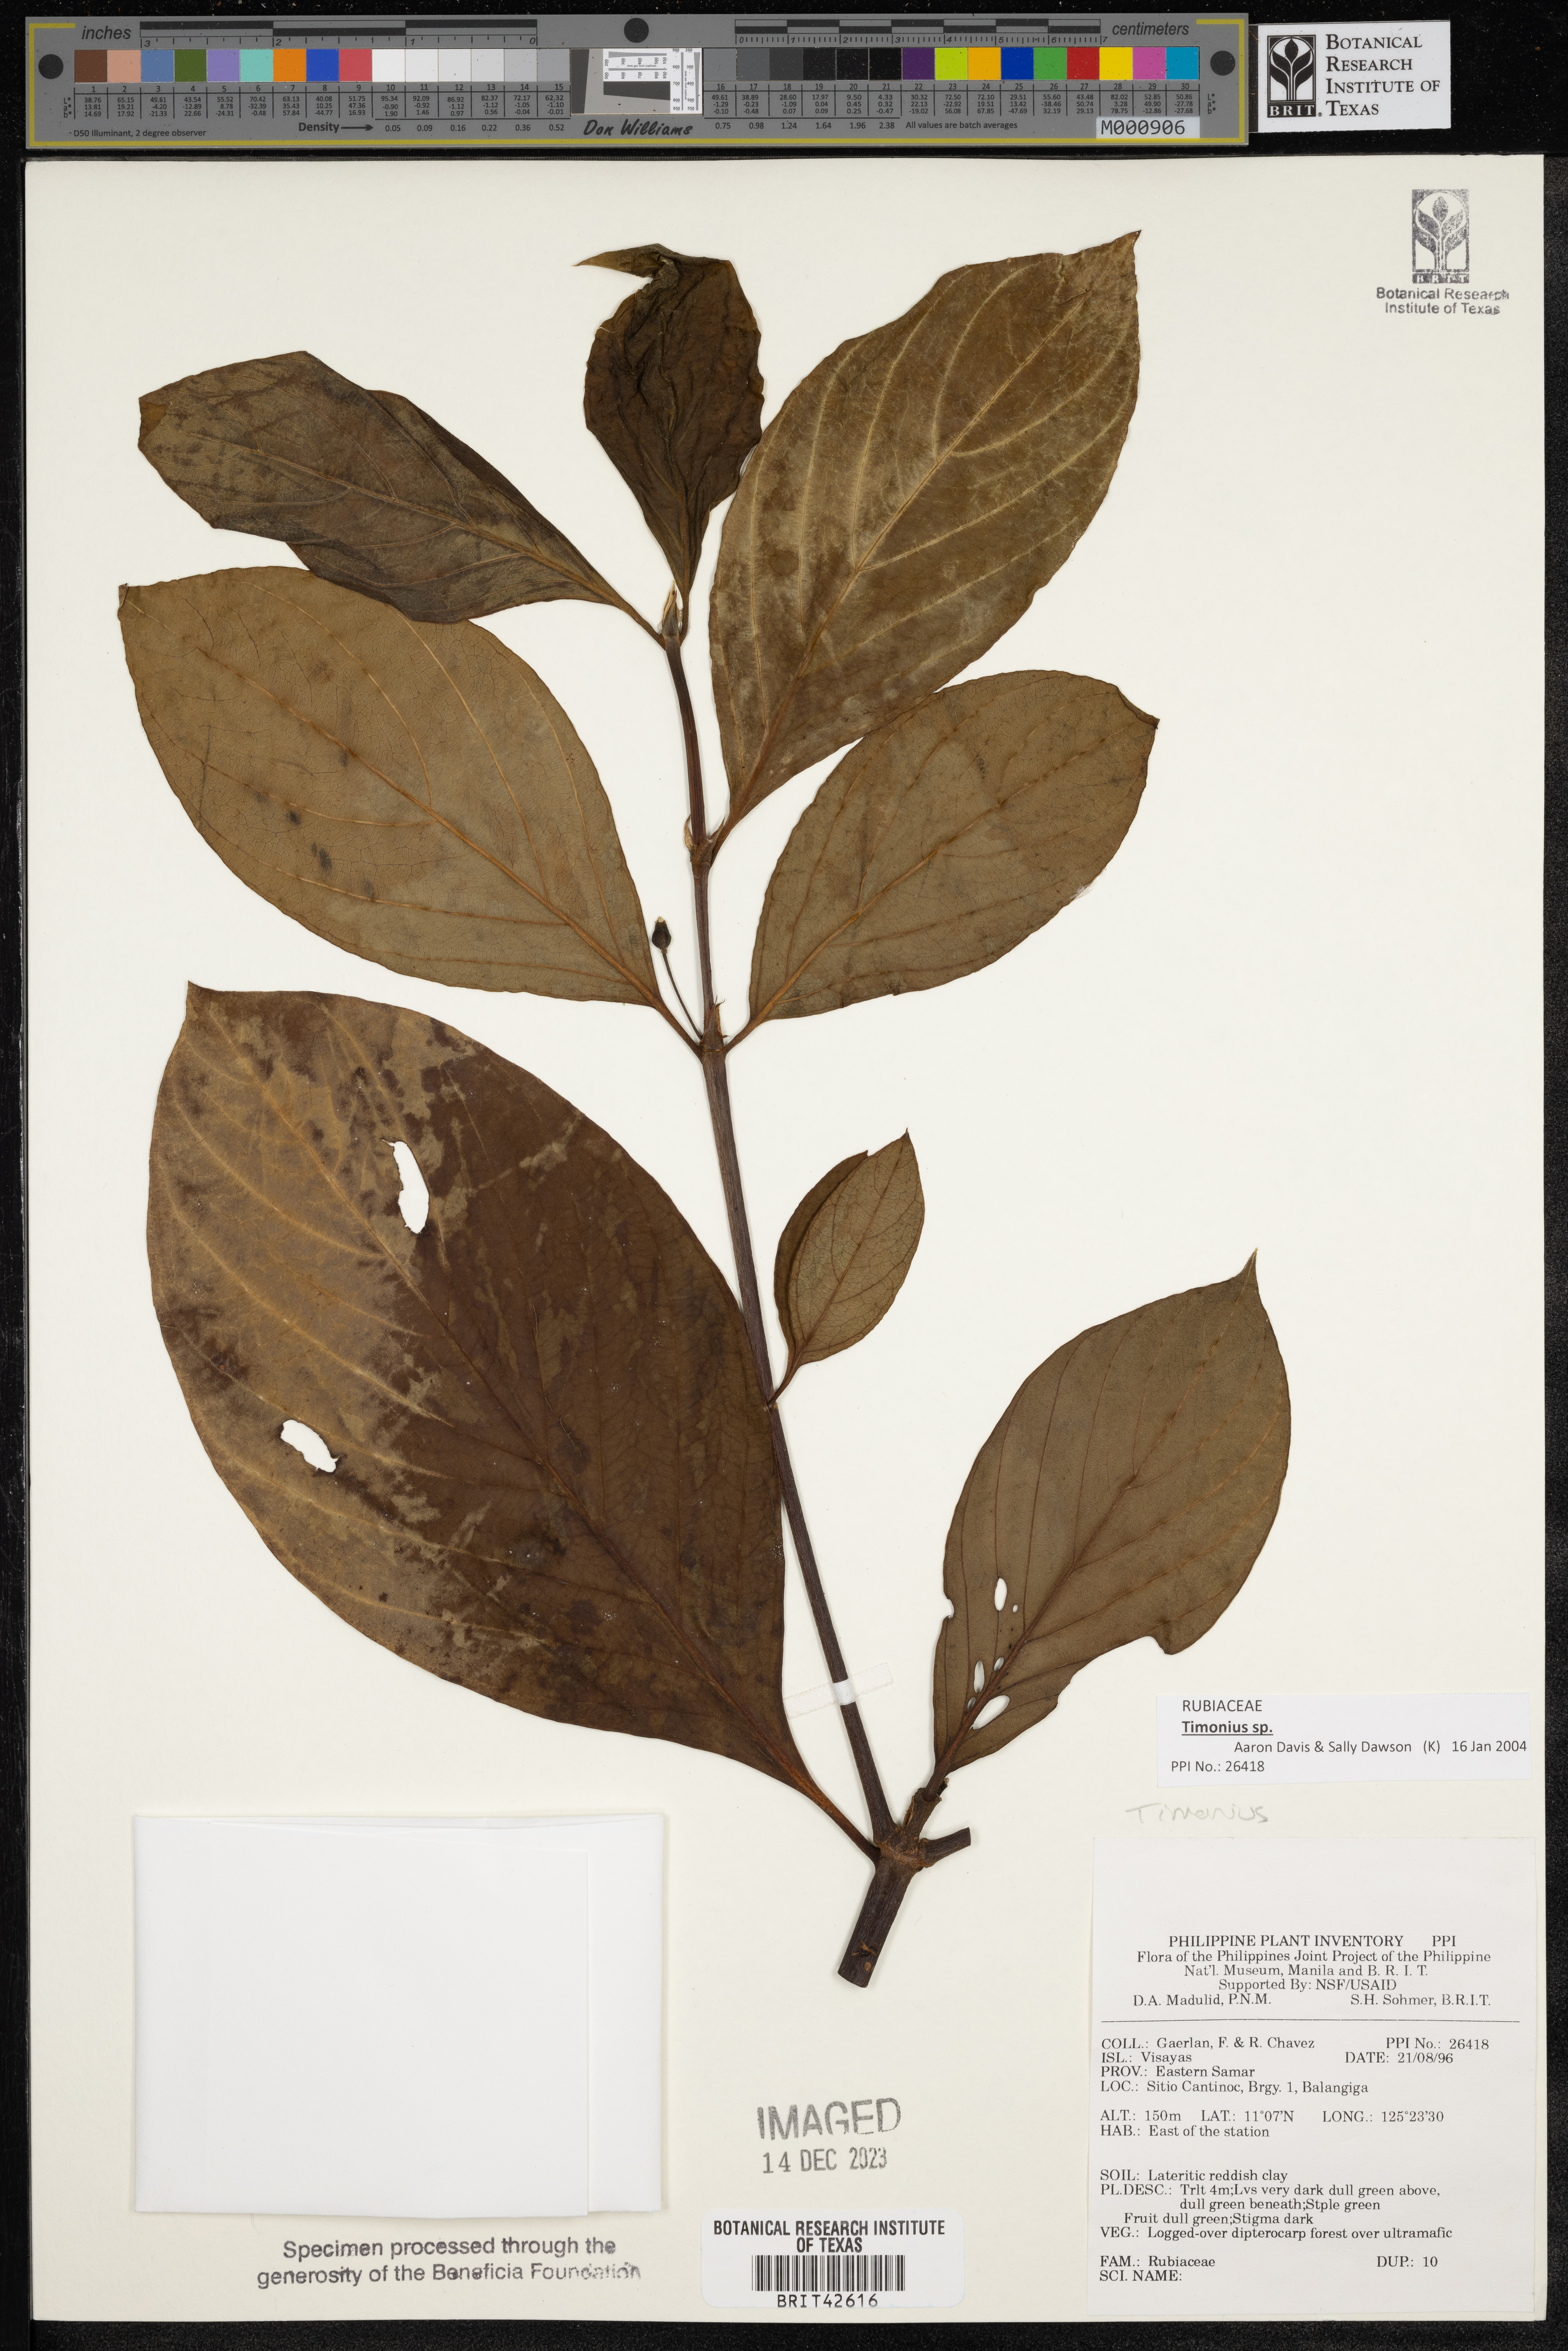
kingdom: Plantae
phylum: Tracheophyta
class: Magnoliopsida
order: Gentianales
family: Rubiaceae
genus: Timonius
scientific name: Timonius
